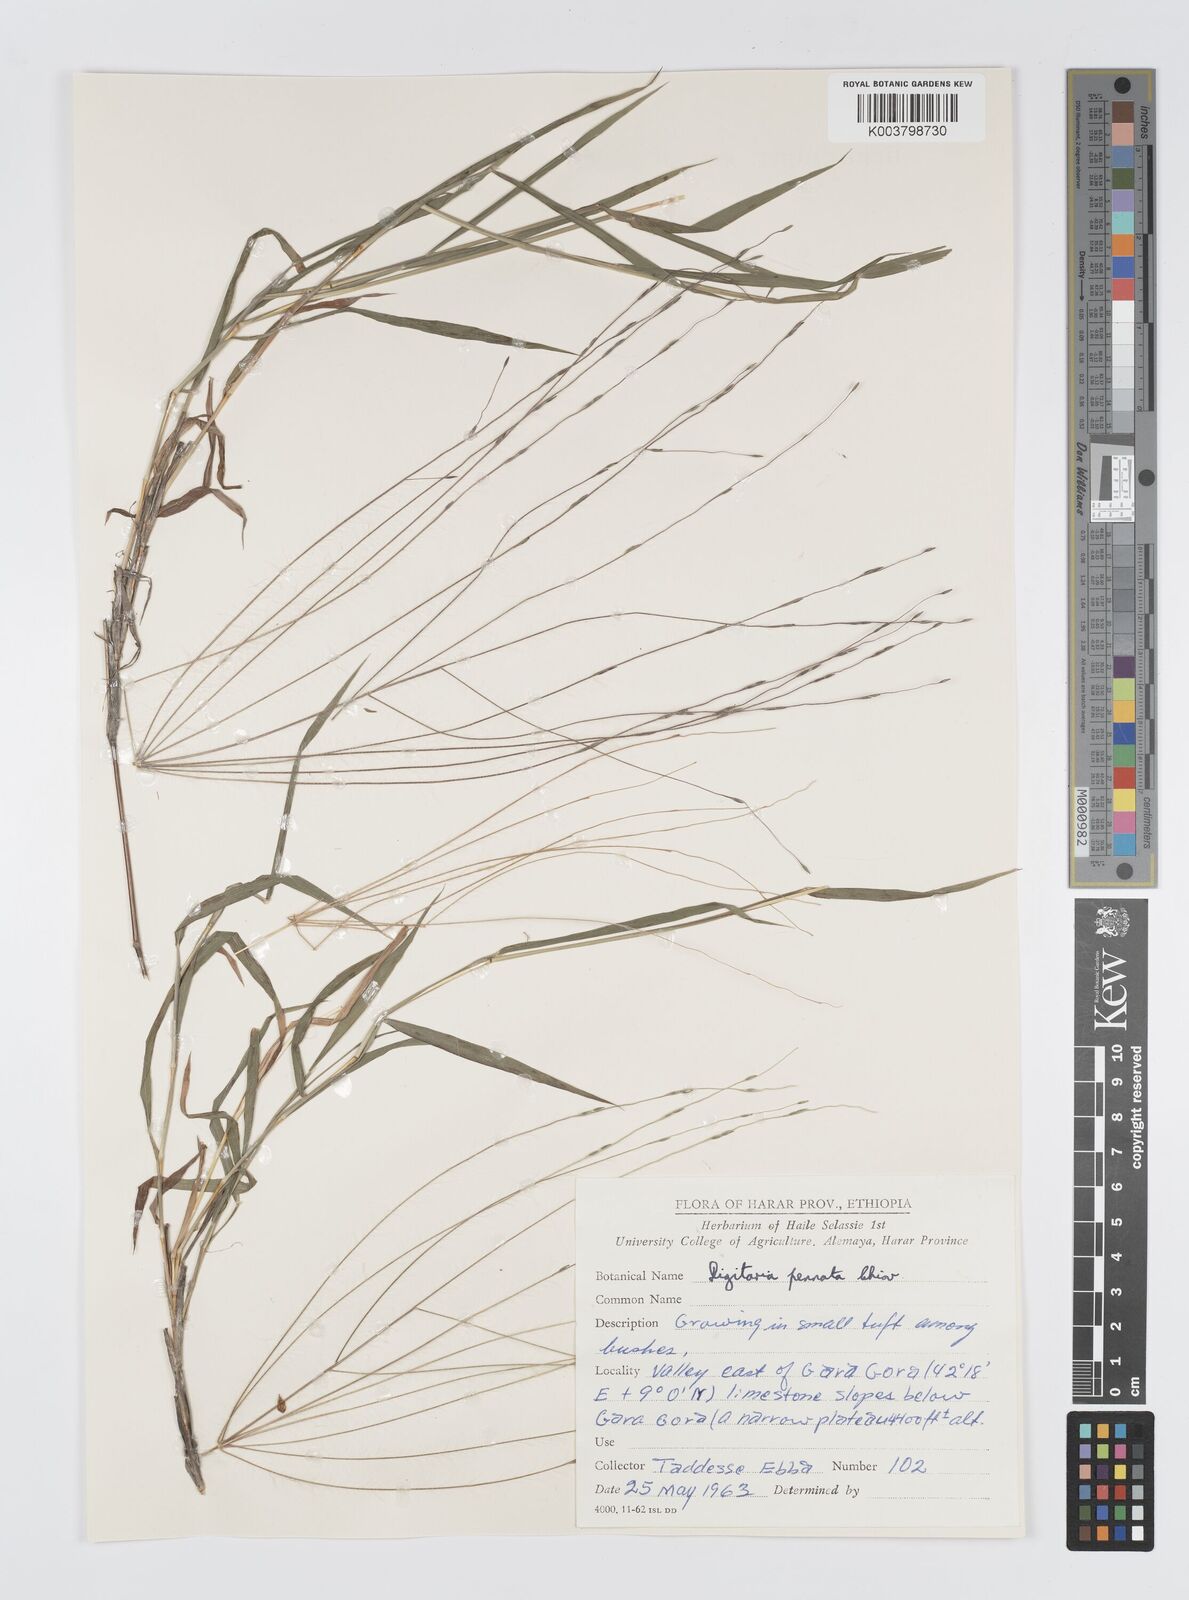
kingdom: Plantae
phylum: Tracheophyta
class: Liliopsida
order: Poales
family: Poaceae
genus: Digitaria
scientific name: Digitaria pennata
